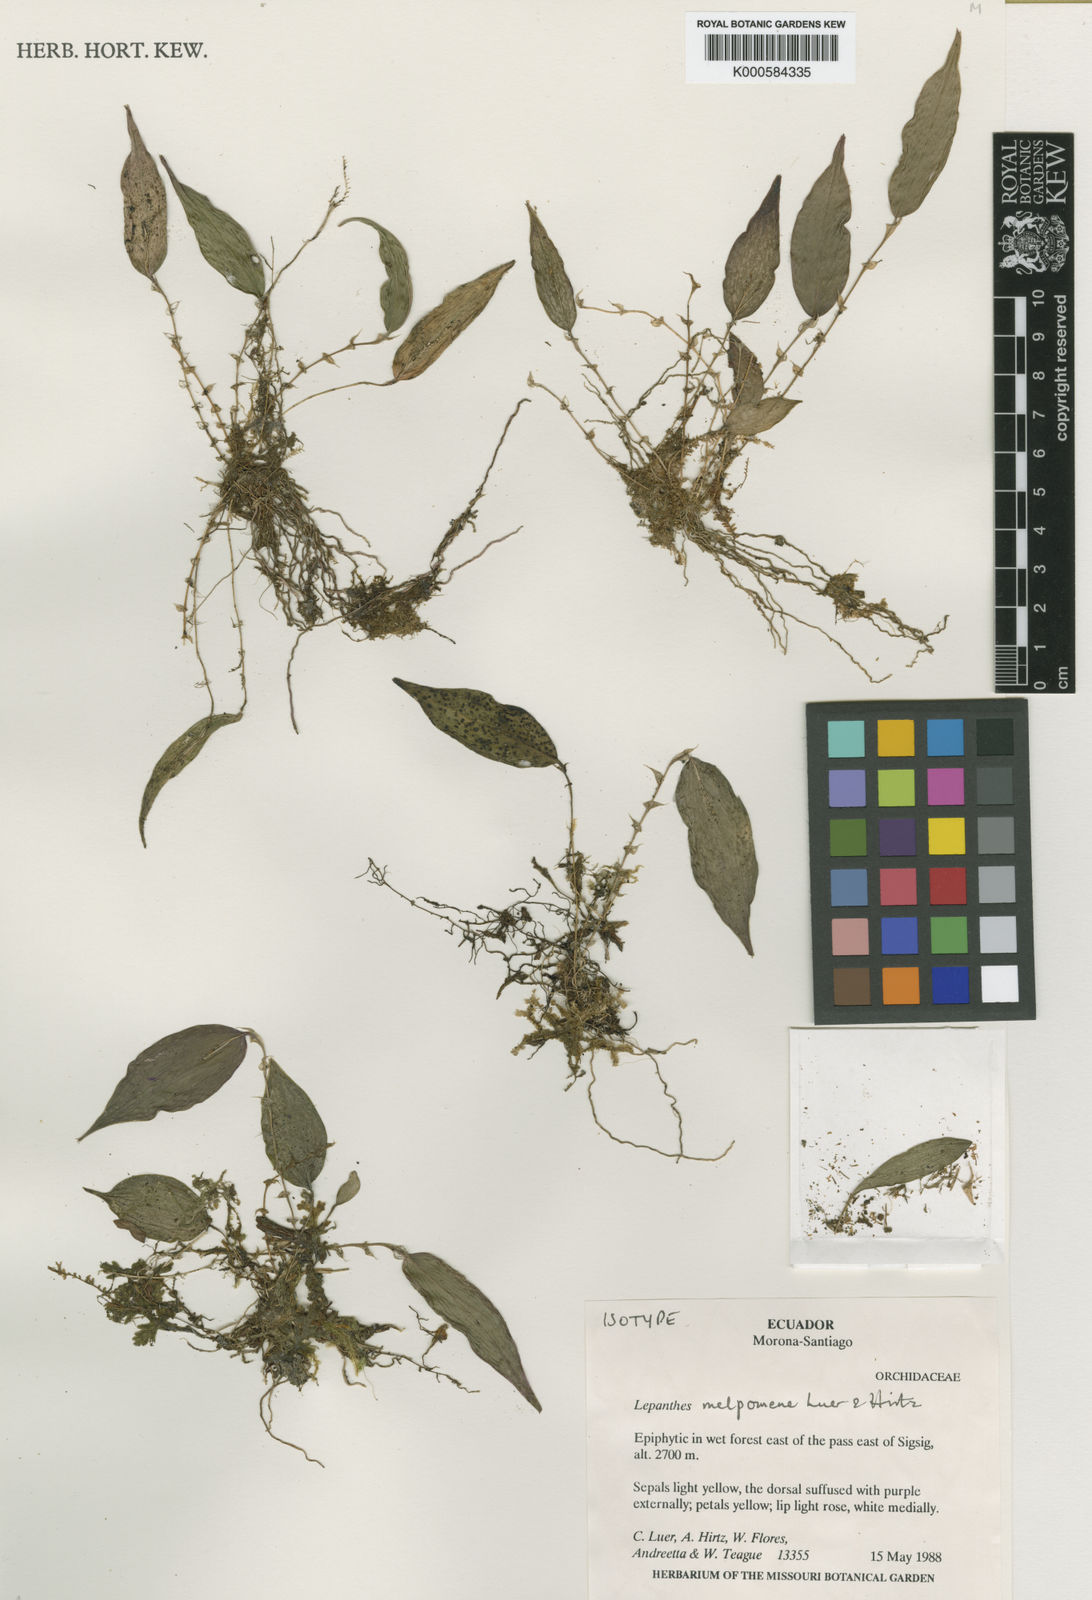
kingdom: Plantae
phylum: Tracheophyta
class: Liliopsida
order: Asparagales
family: Orchidaceae
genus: Lepanthes
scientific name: Lepanthes melpomene
